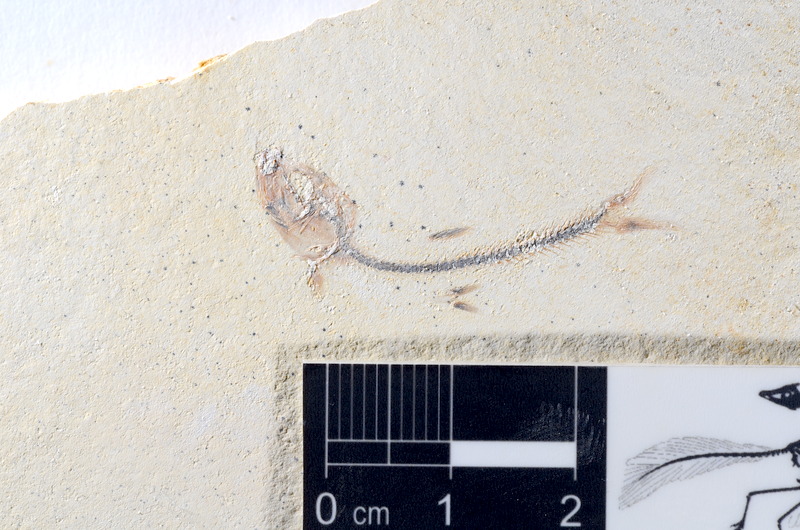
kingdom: Animalia
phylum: Chordata
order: Salmoniformes
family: Orthogonikleithridae
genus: Orthogonikleithrus
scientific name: Orthogonikleithrus hoelli
